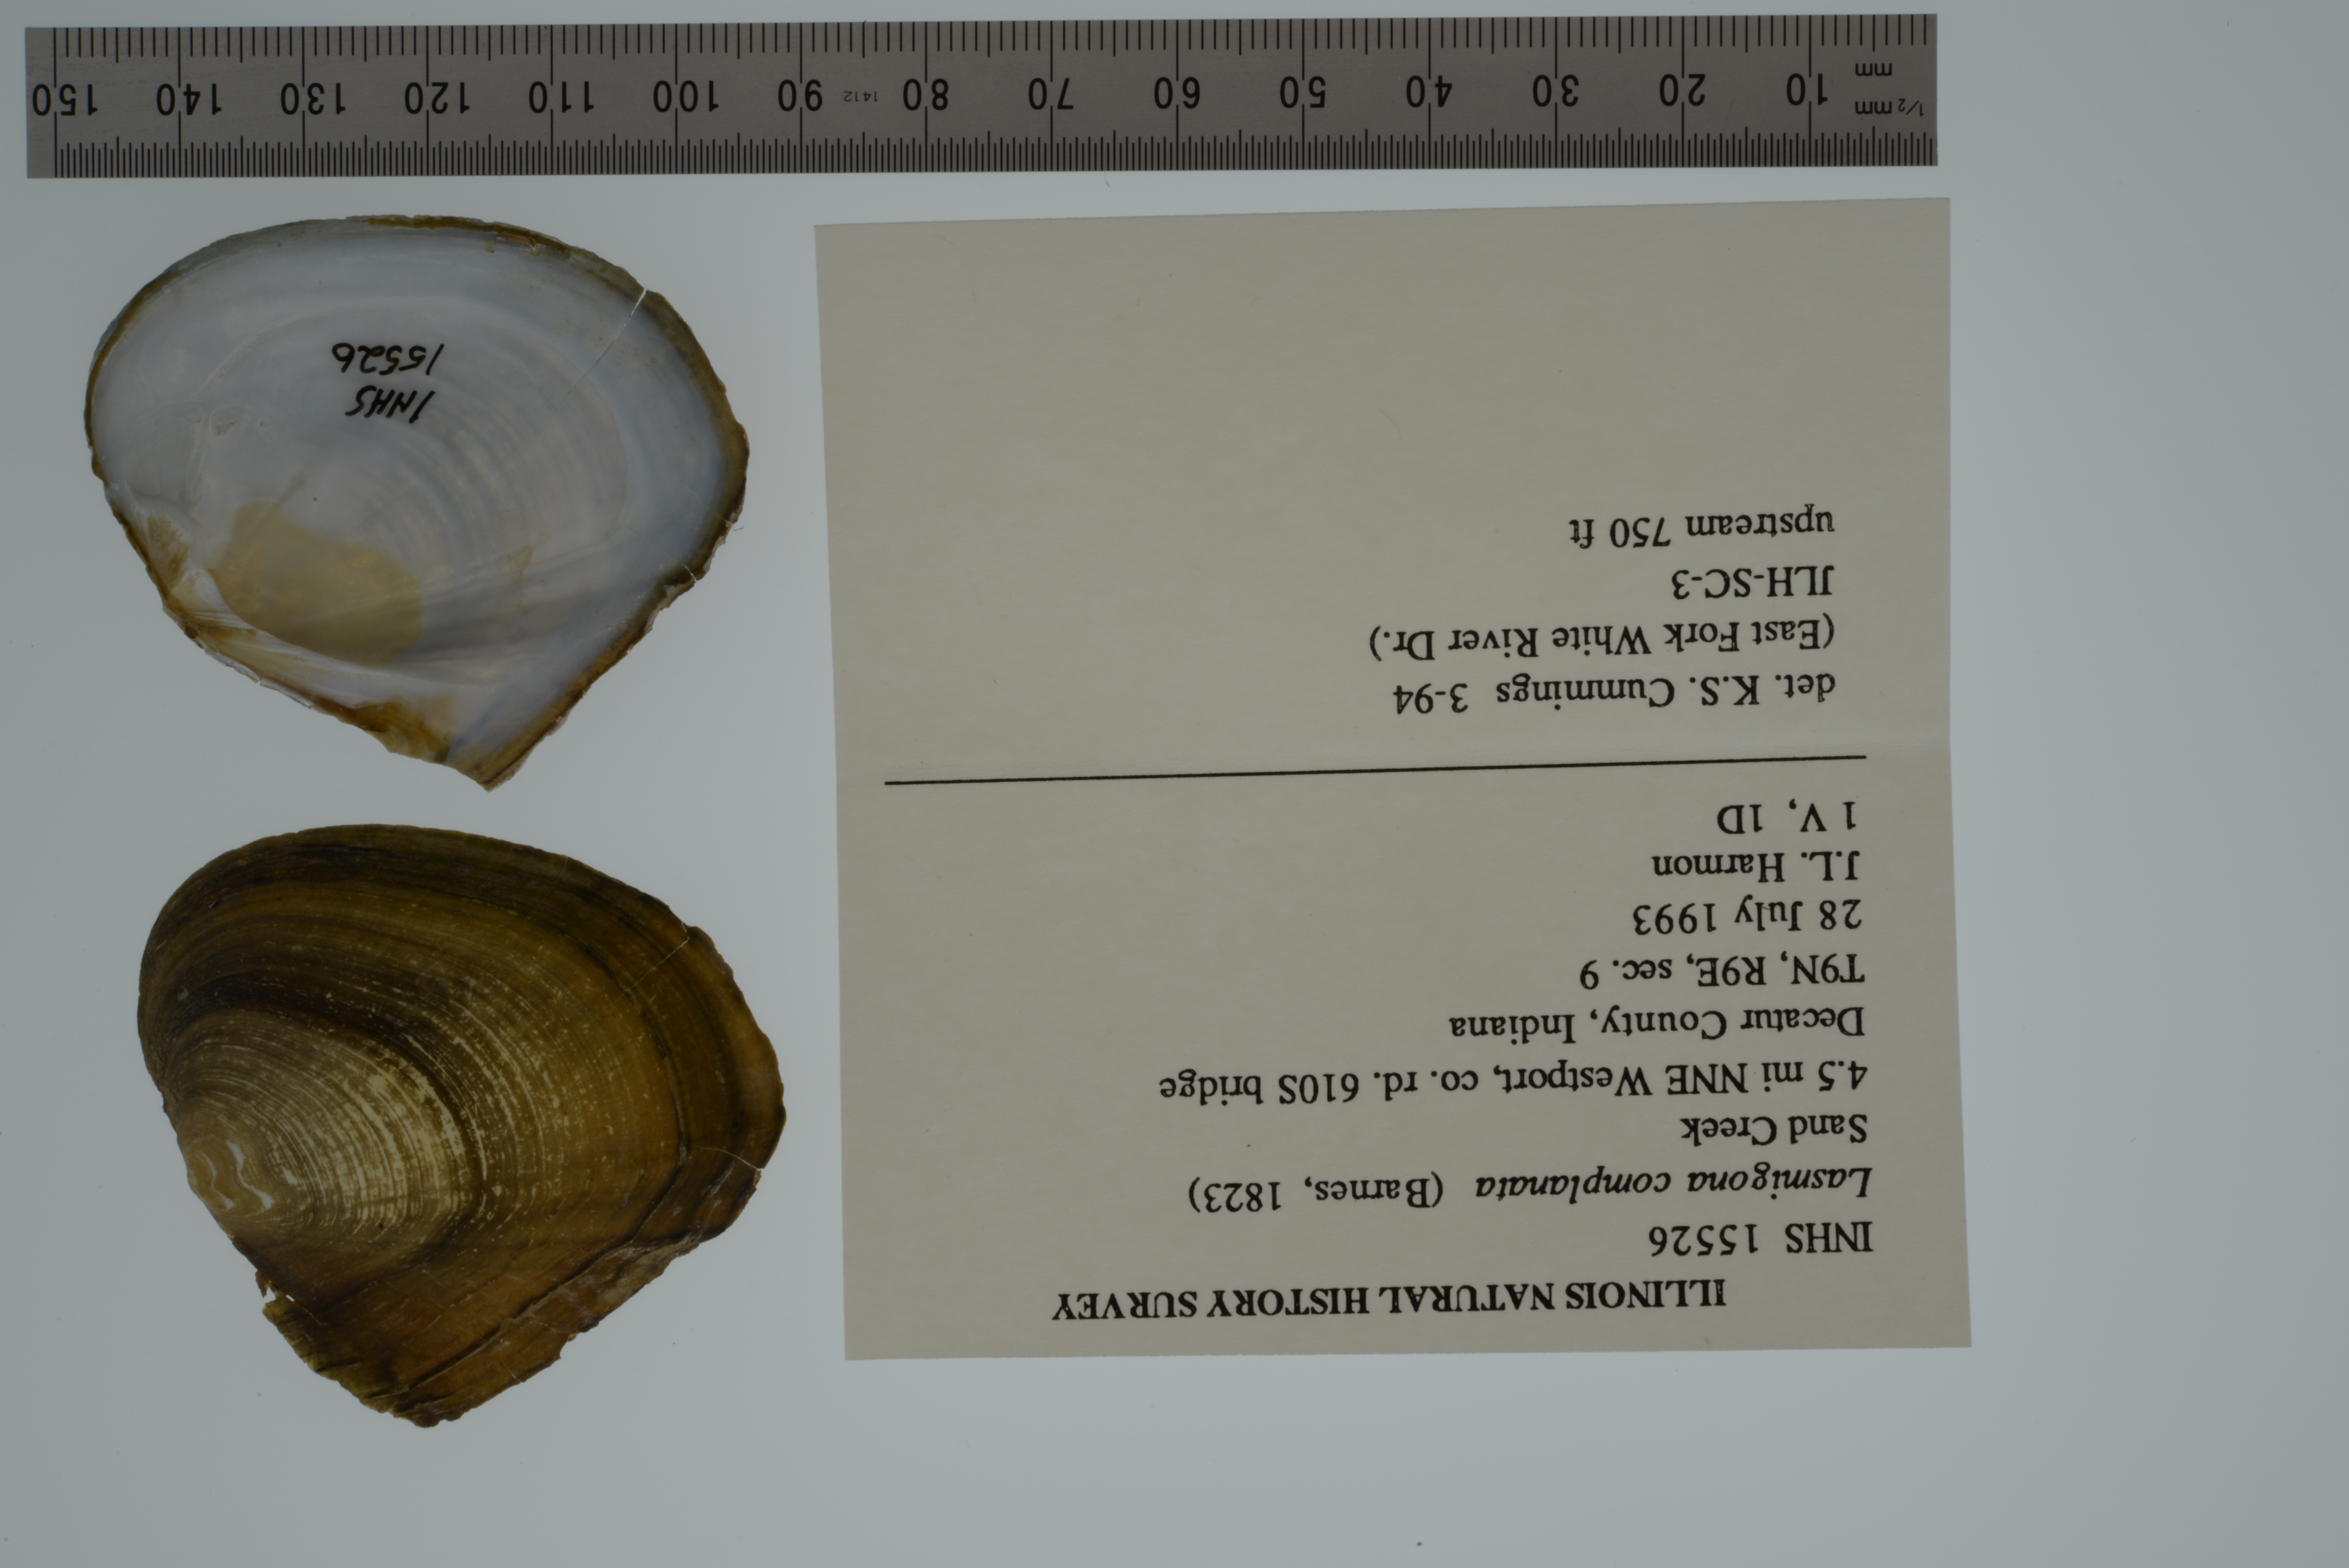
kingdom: Animalia
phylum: Mollusca
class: Bivalvia
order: Unionida
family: Unionidae
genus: Lasmigona
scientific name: Lasmigona complanata
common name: White heelsplitter
